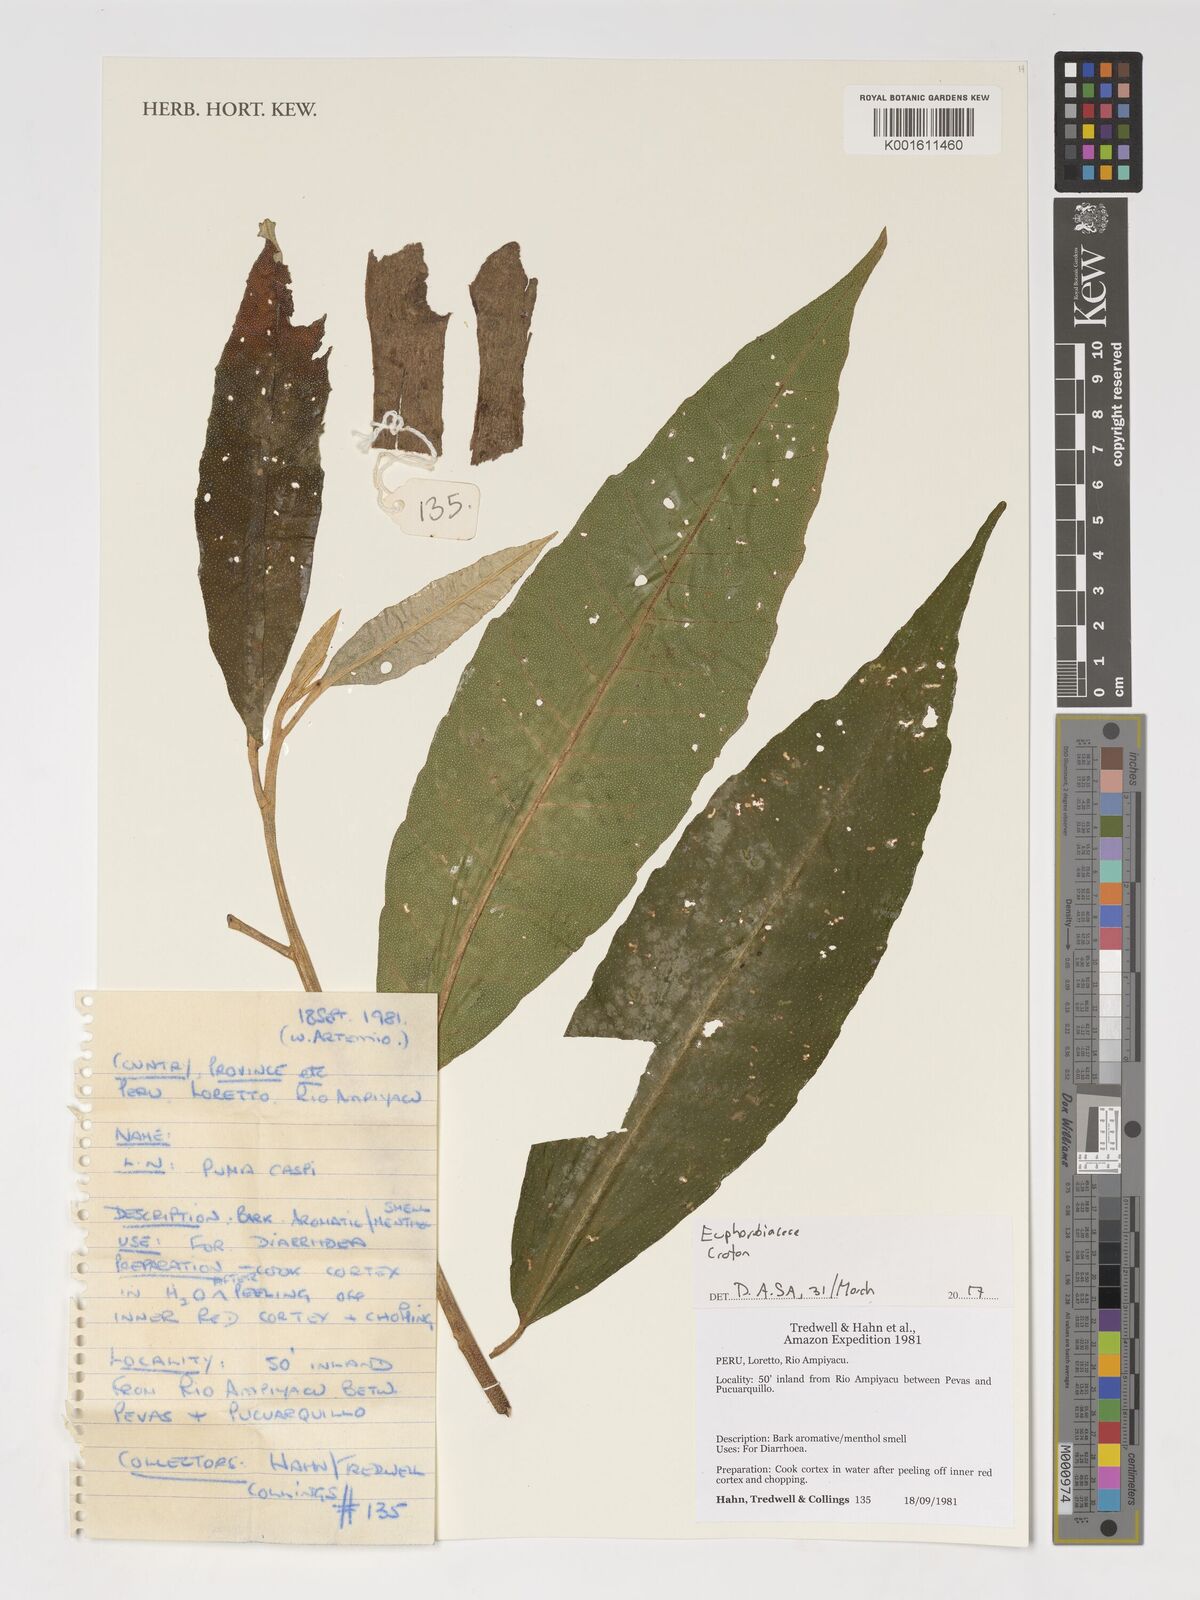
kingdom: Plantae
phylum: Tracheophyta
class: Magnoliopsida
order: Malpighiales
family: Euphorbiaceae
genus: Croton
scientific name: Croton
